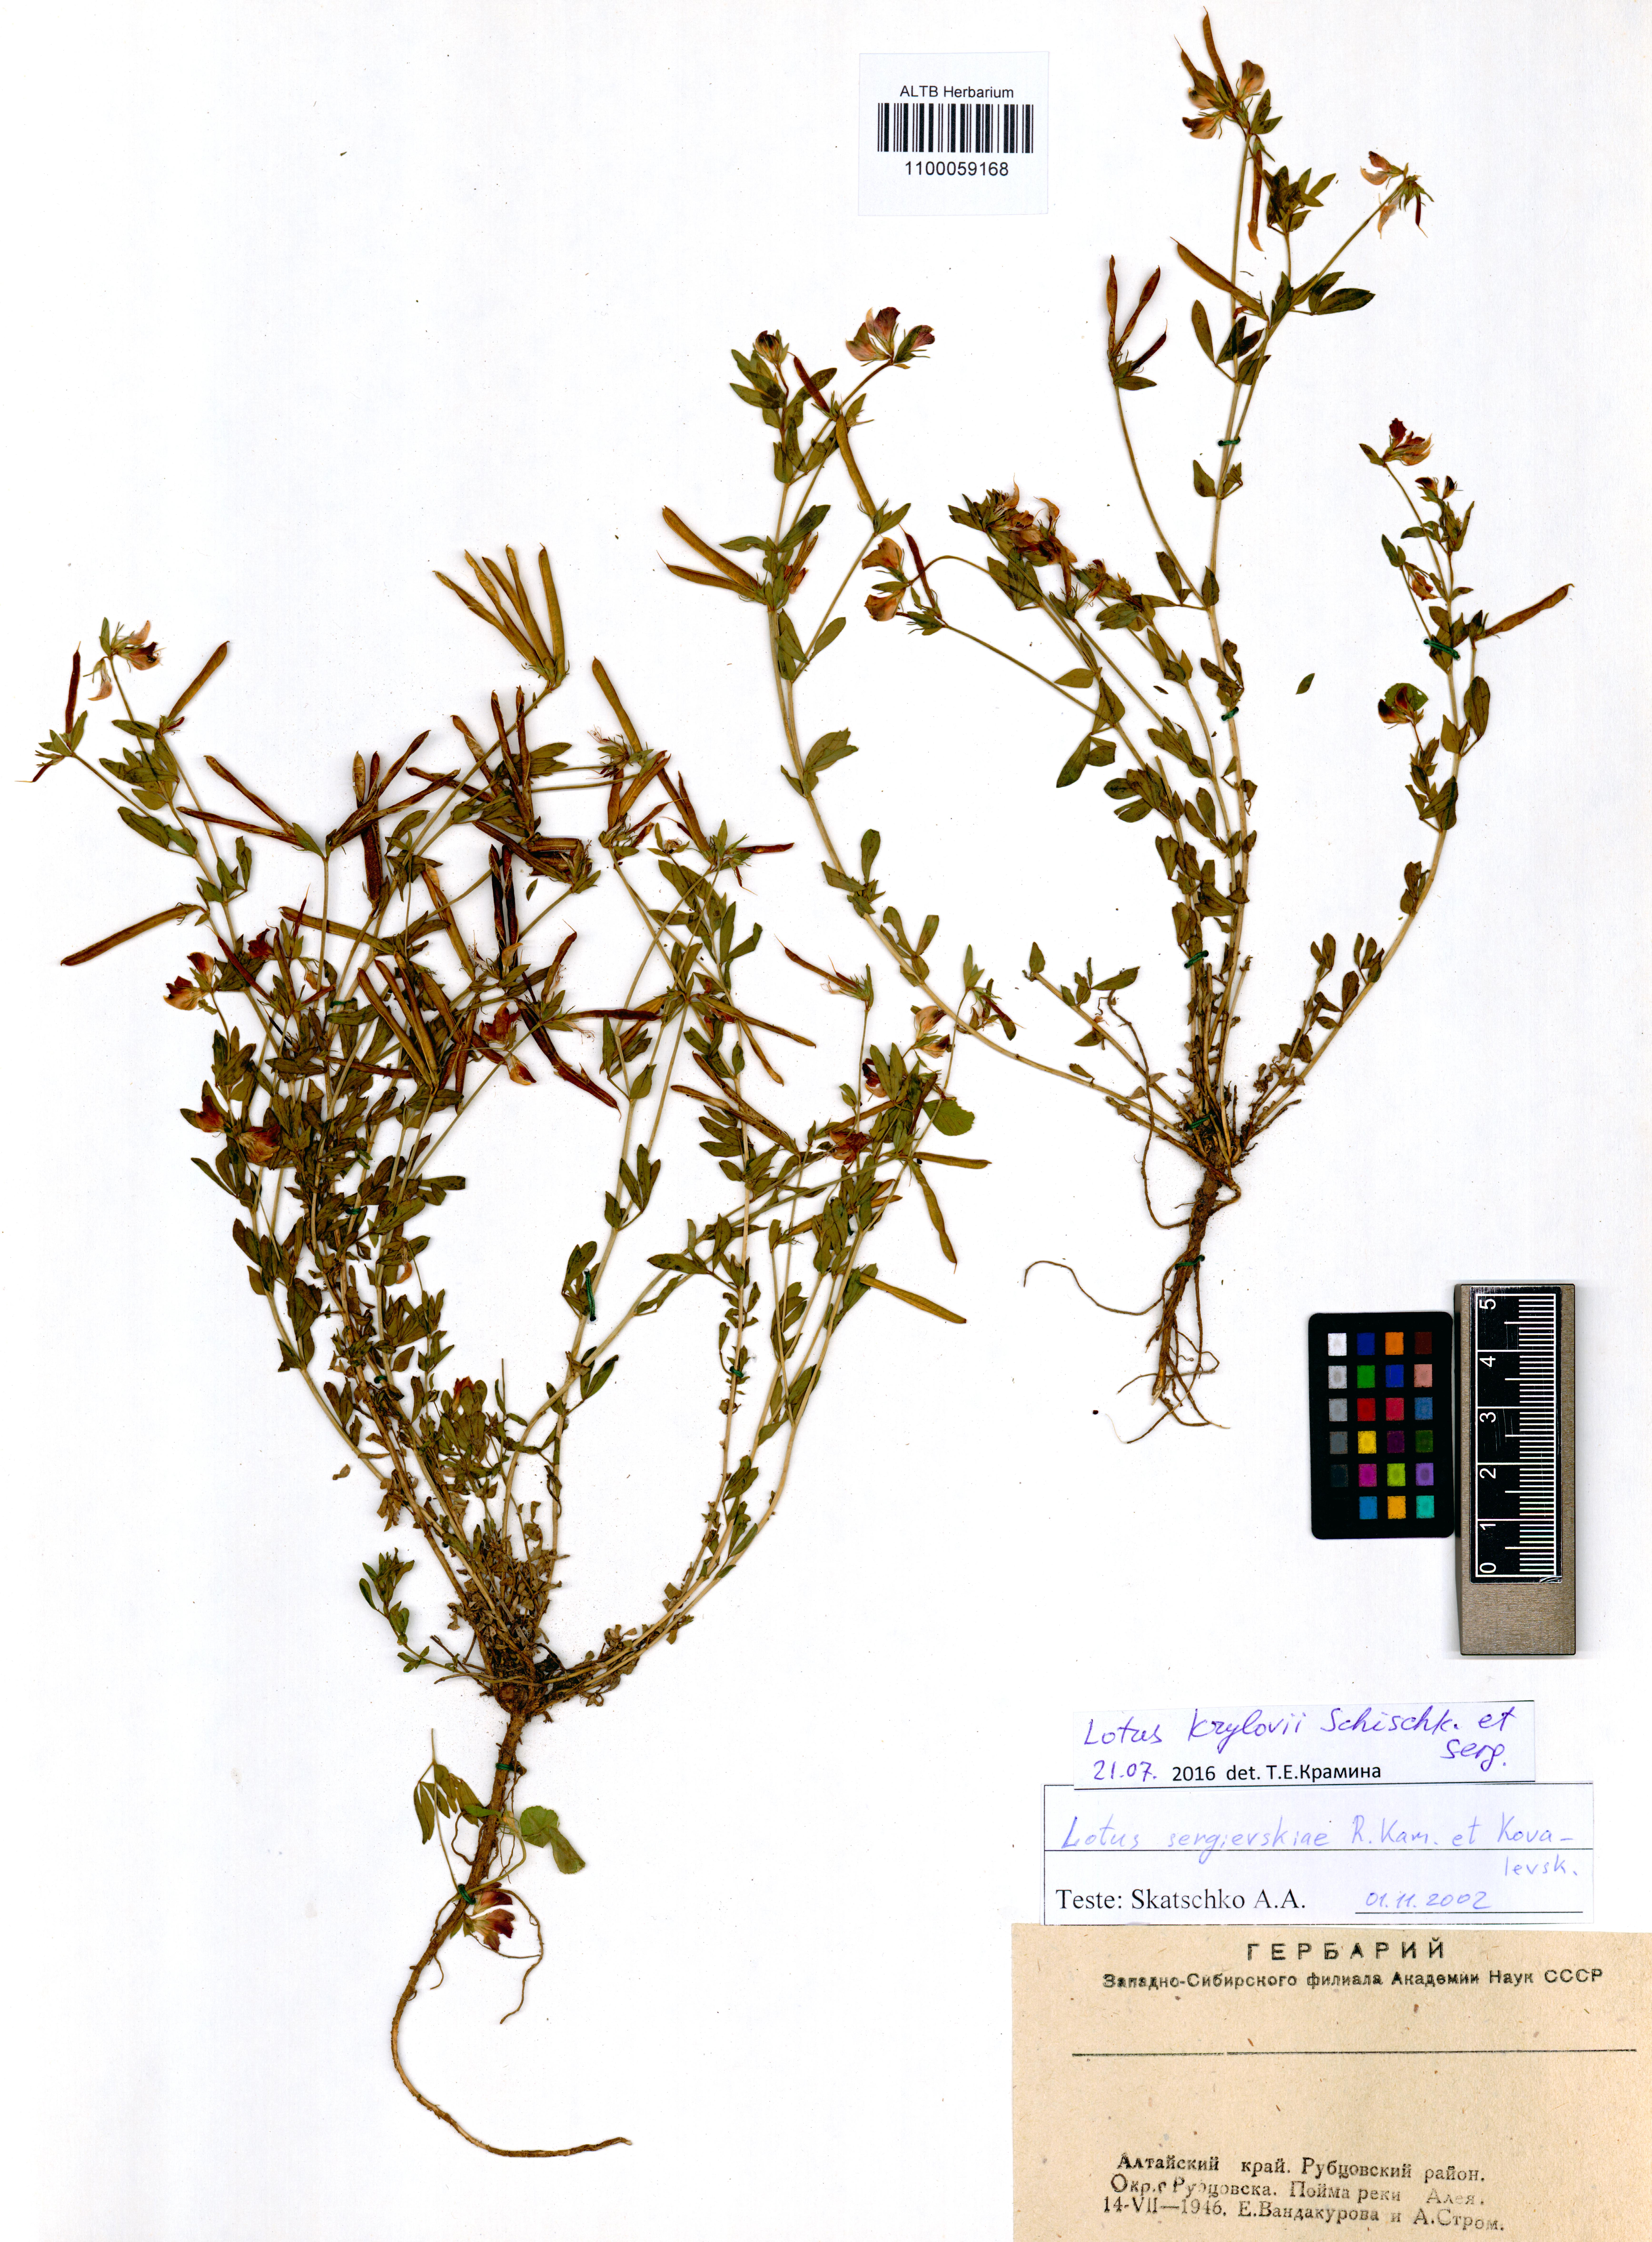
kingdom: Plantae
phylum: Tracheophyta
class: Magnoliopsida
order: Fabales
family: Fabaceae
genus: Lotus
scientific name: Lotus krylovii
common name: Krylov's bird's-foot trefoil
